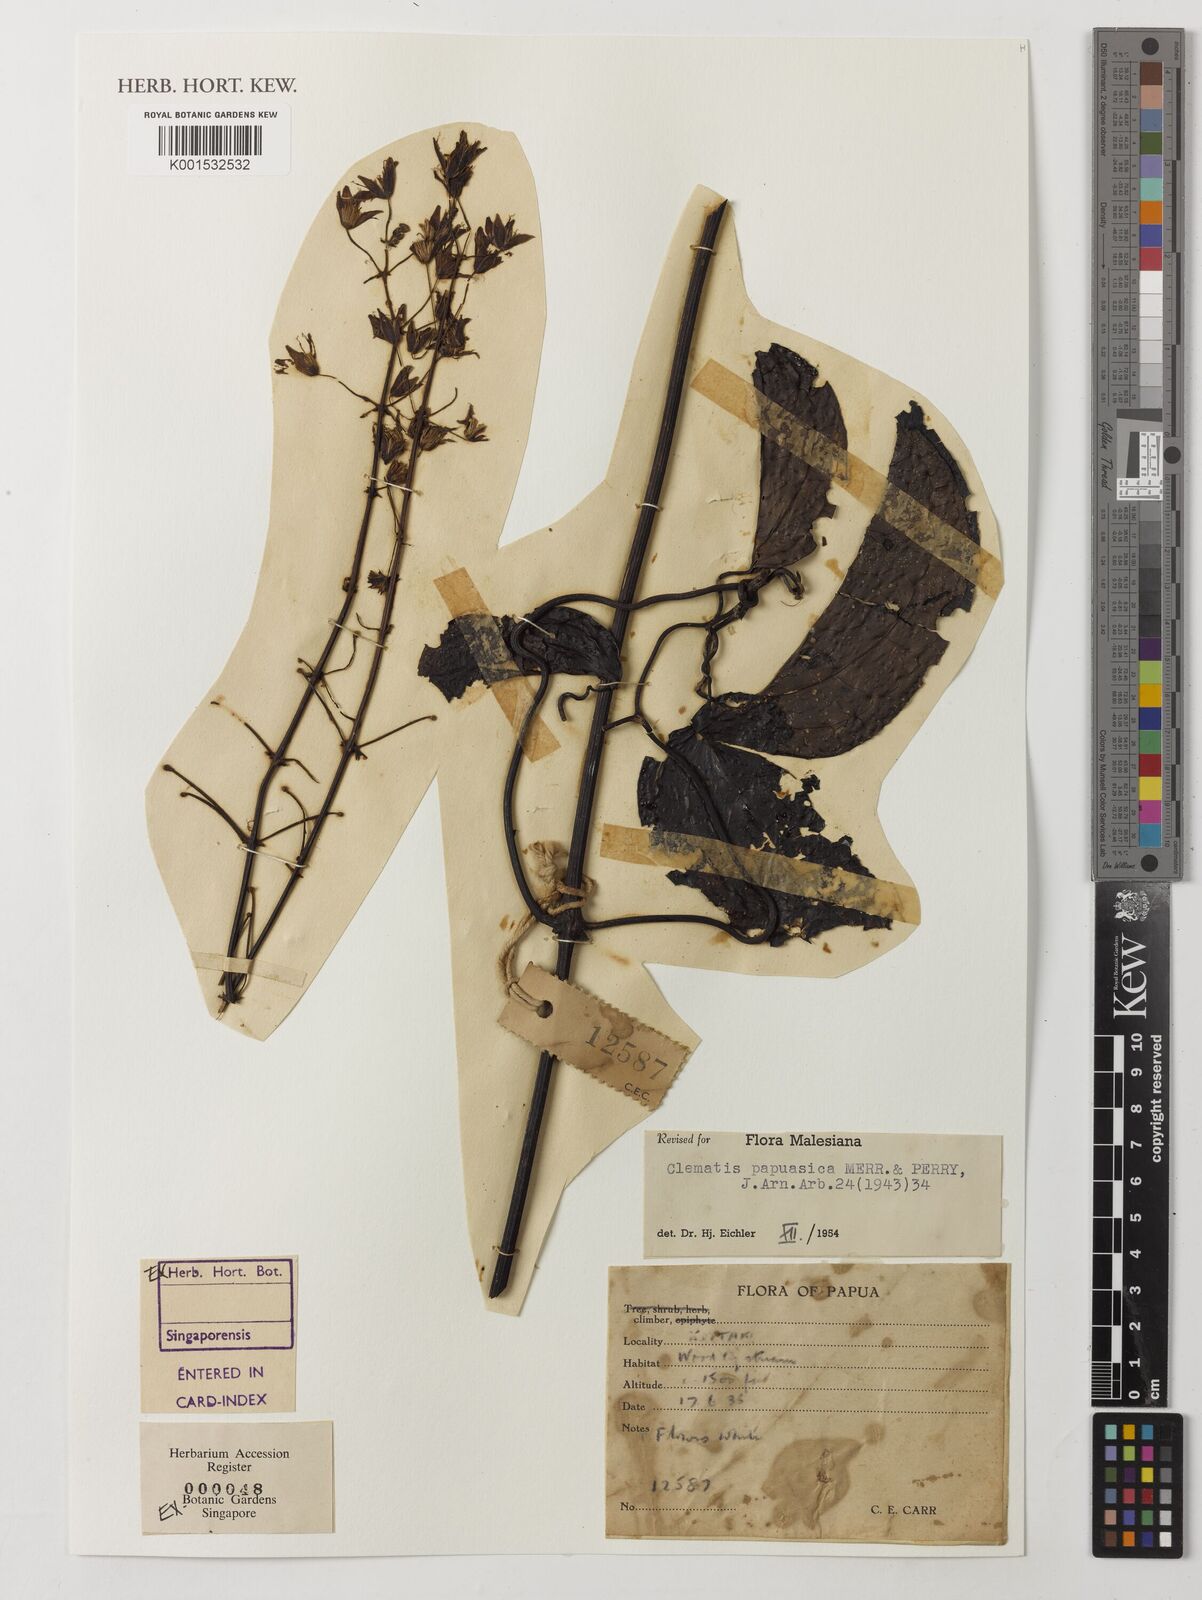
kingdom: Plantae
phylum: Tracheophyta
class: Magnoliopsida
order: Ranunculales
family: Ranunculaceae
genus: Clematis
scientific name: Clematis papuasica
